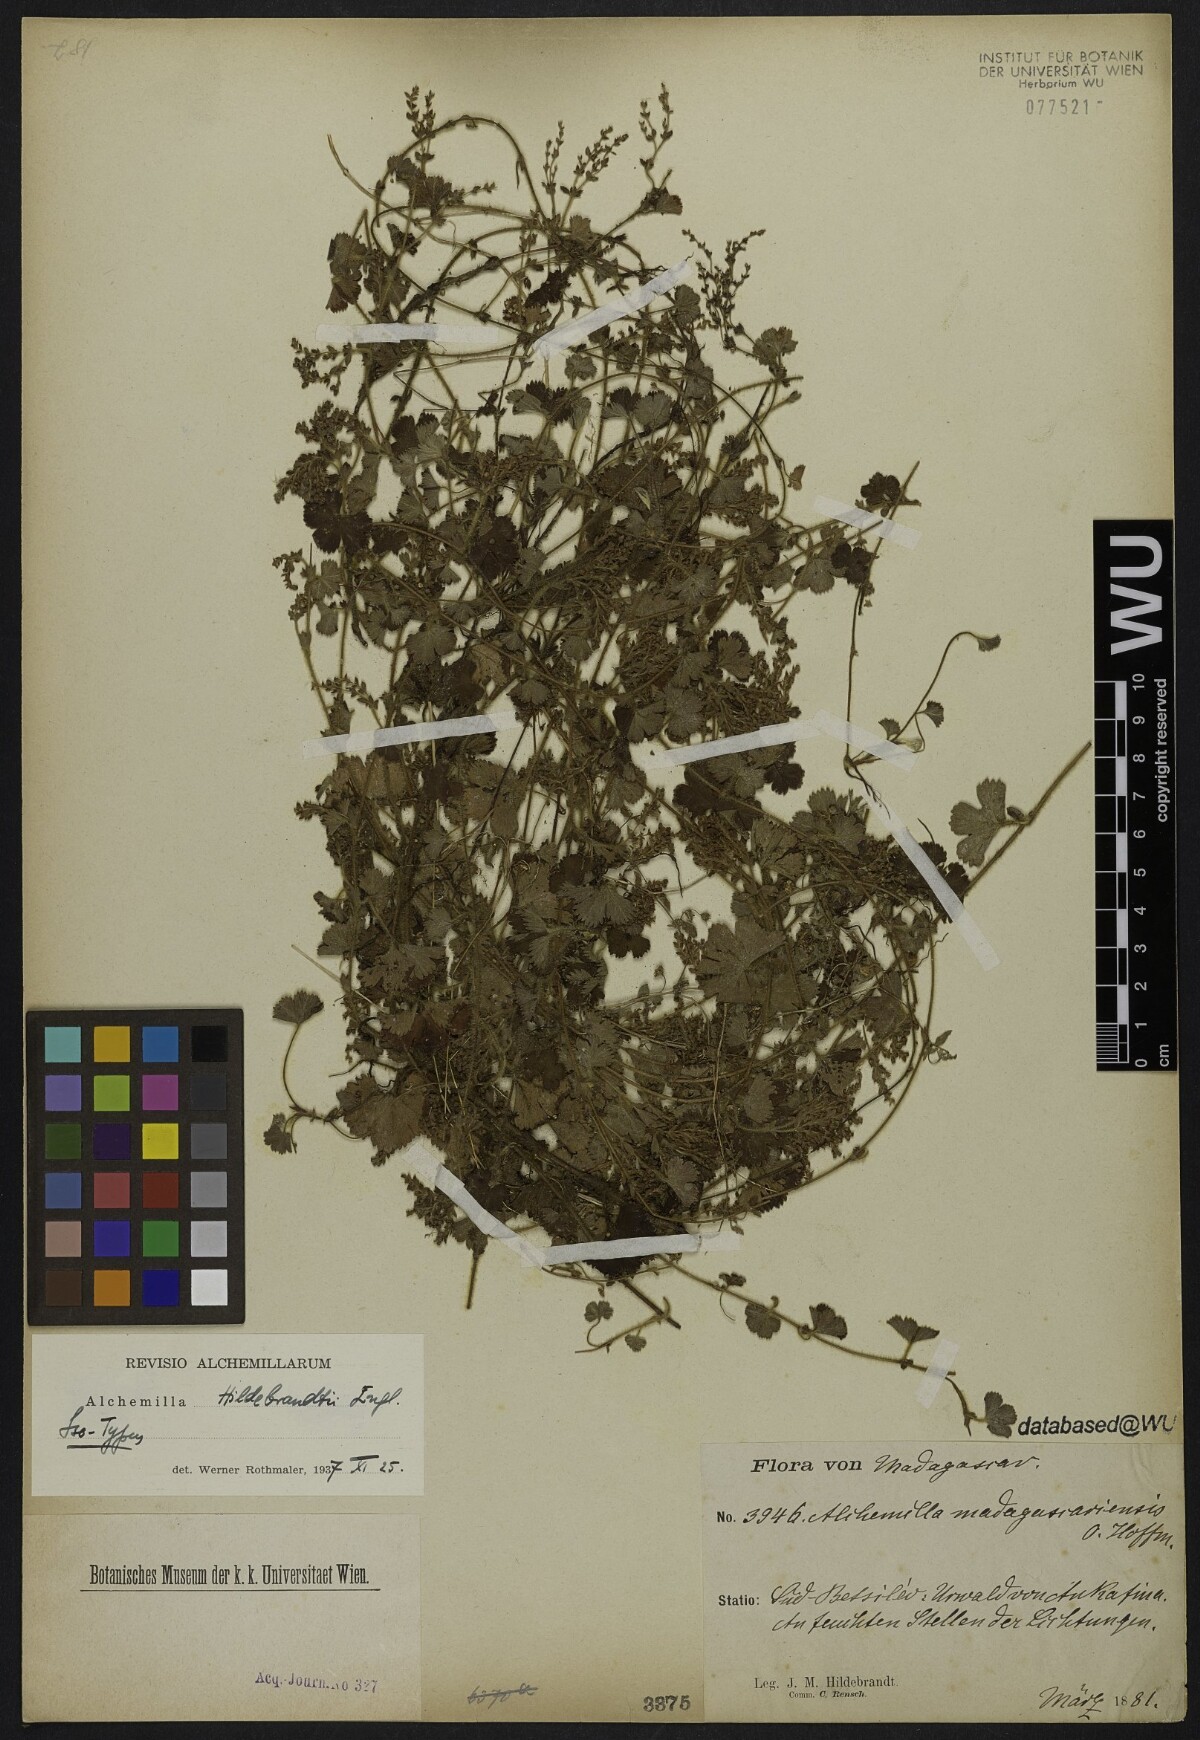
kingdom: Plantae
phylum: Tracheophyta
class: Magnoliopsida
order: Rosales
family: Rosaceae
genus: Alchemilla
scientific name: Alchemilla hildebrandtii
